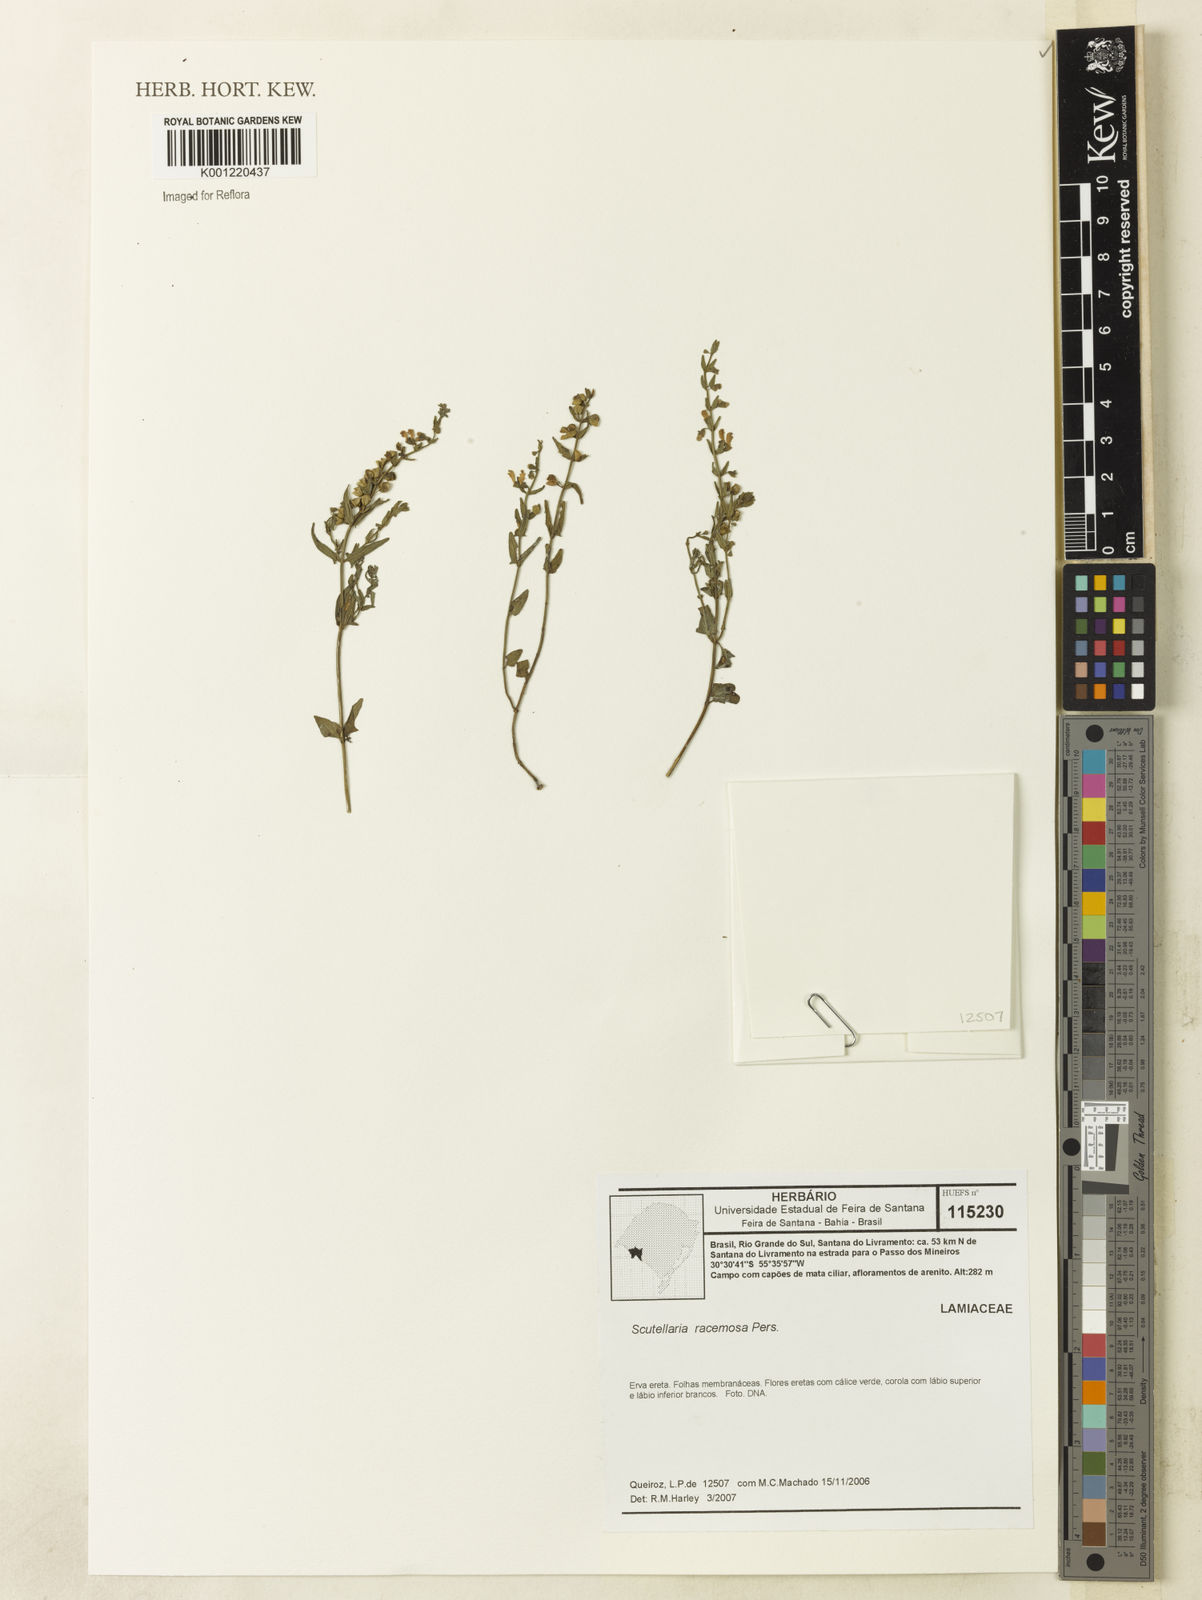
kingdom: Plantae
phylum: Tracheophyta
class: Magnoliopsida
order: Lamiales
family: Lamiaceae
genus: Scutellaria
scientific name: Scutellaria racemosa
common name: South american skullcap
